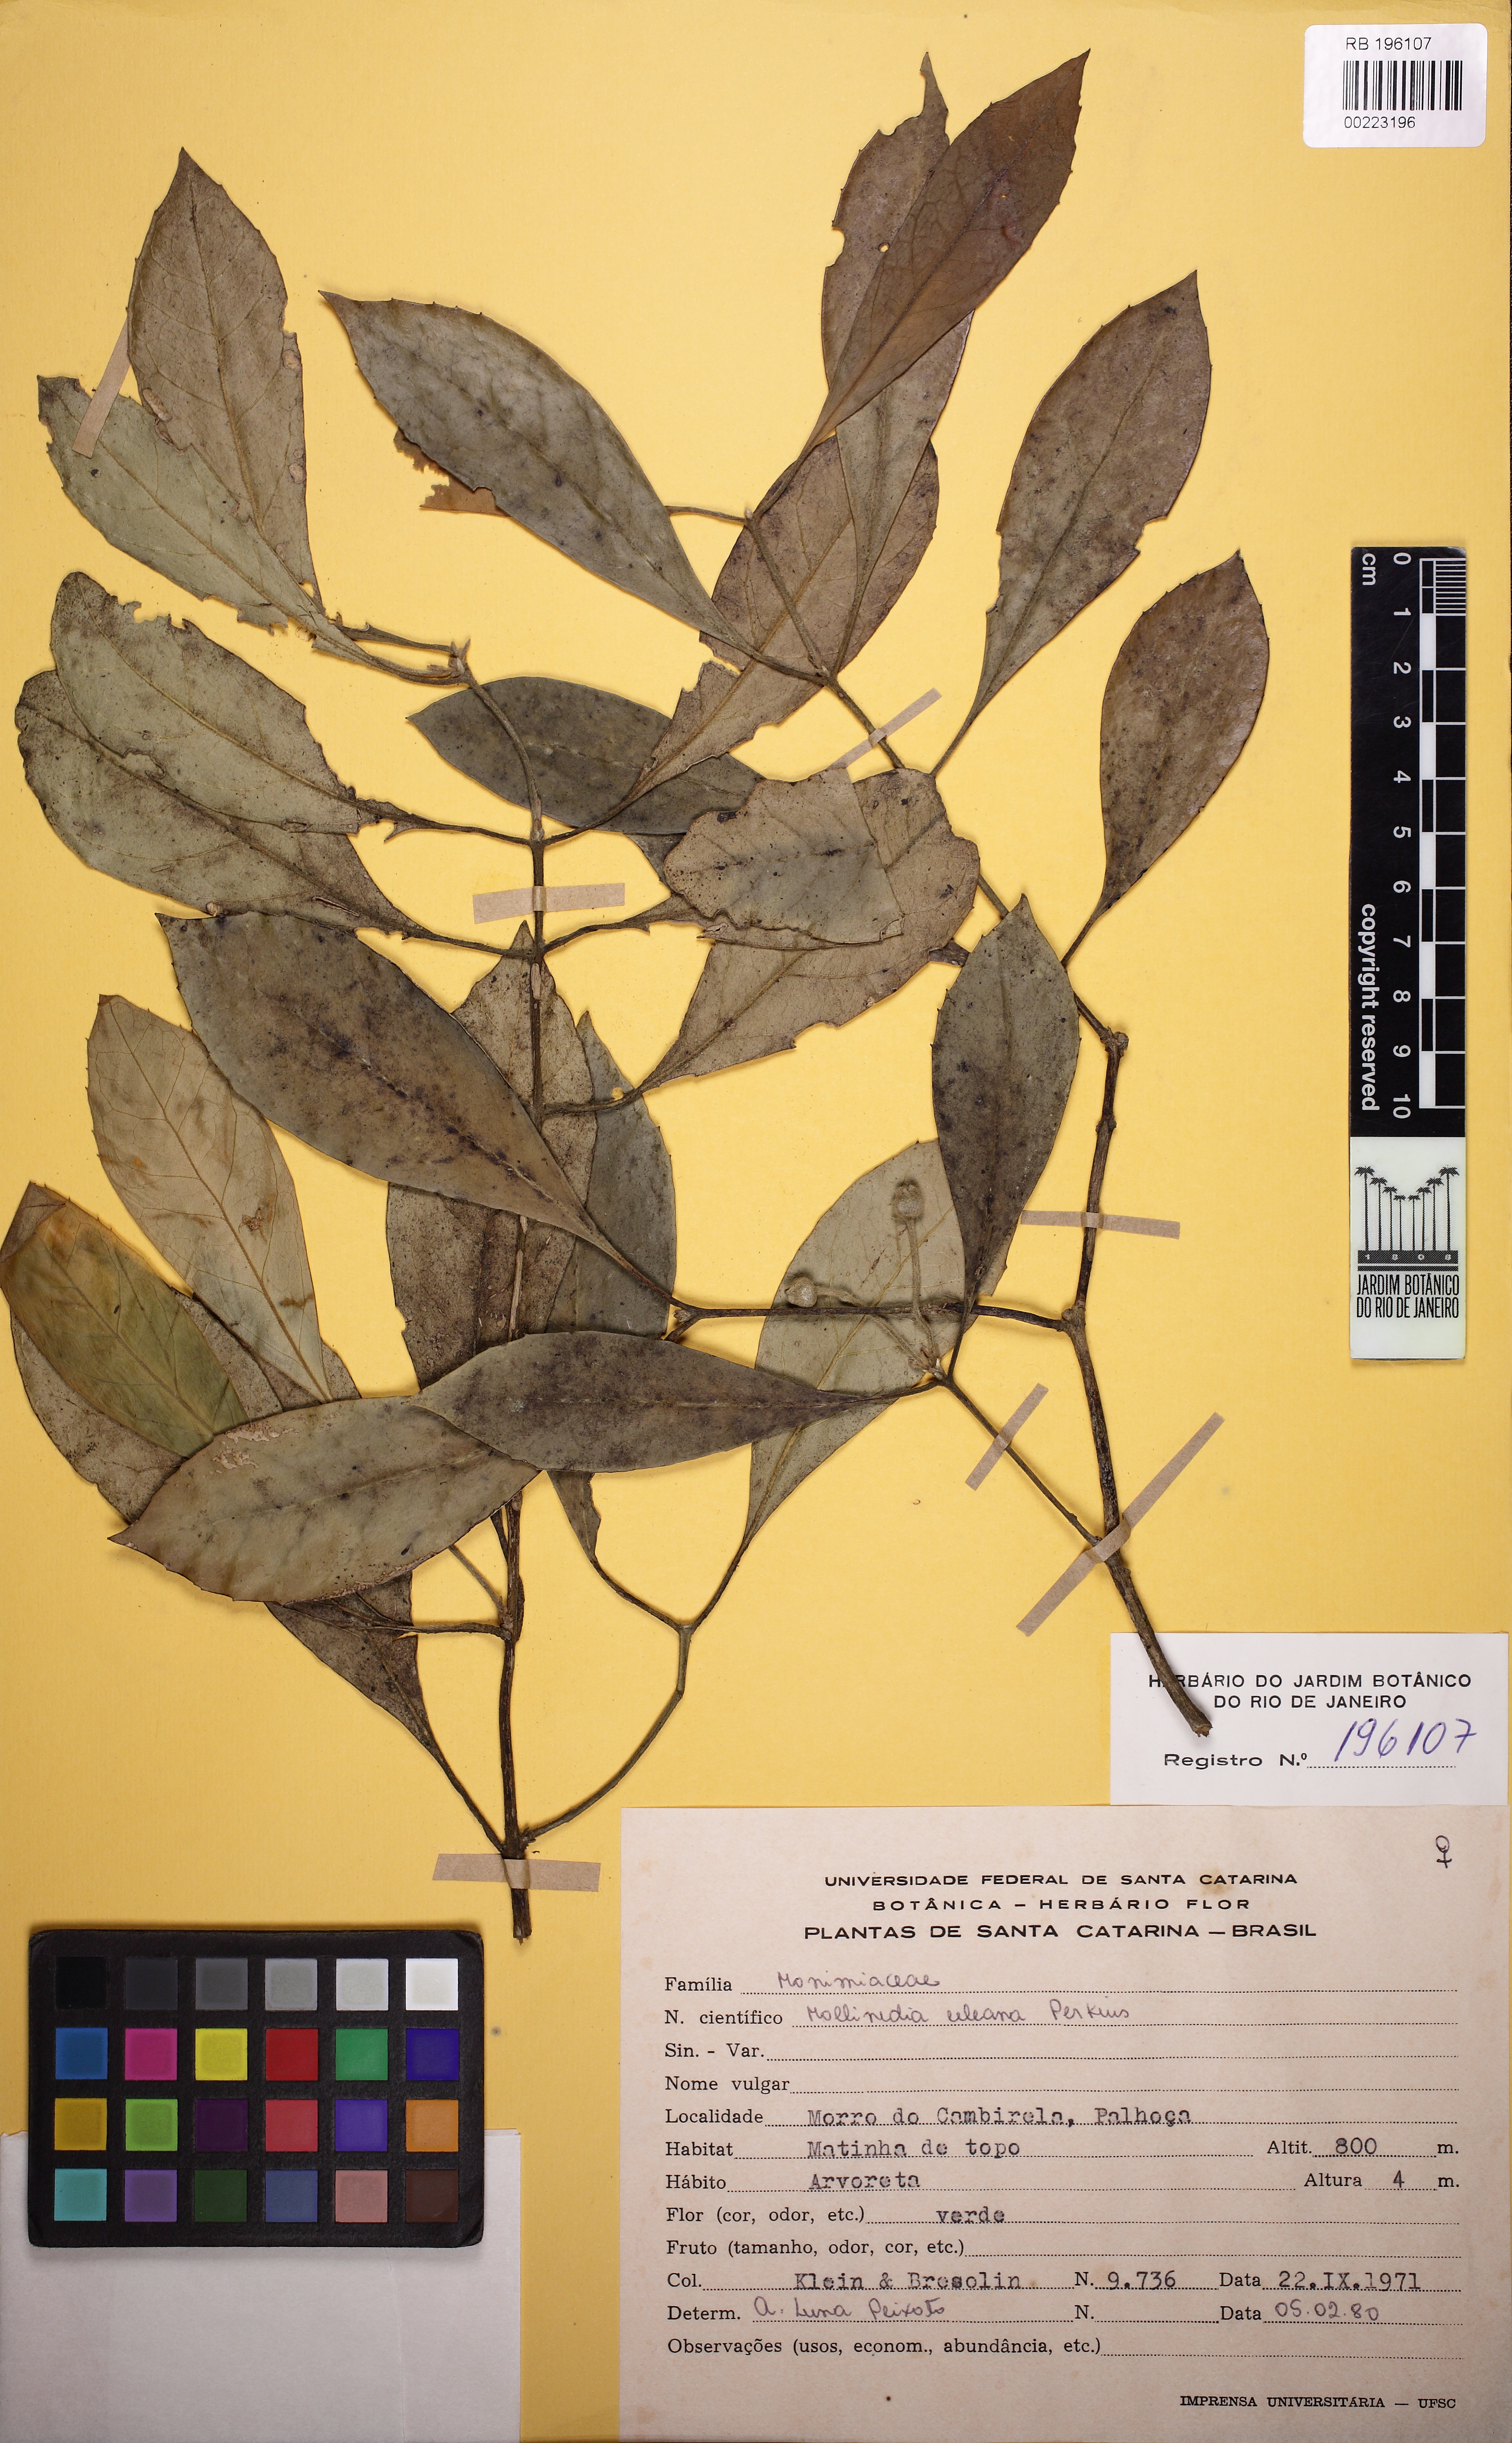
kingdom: Plantae
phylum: Tracheophyta
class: Magnoliopsida
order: Laurales
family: Monimiaceae
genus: Mollinedia
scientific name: Mollinedia uleana
